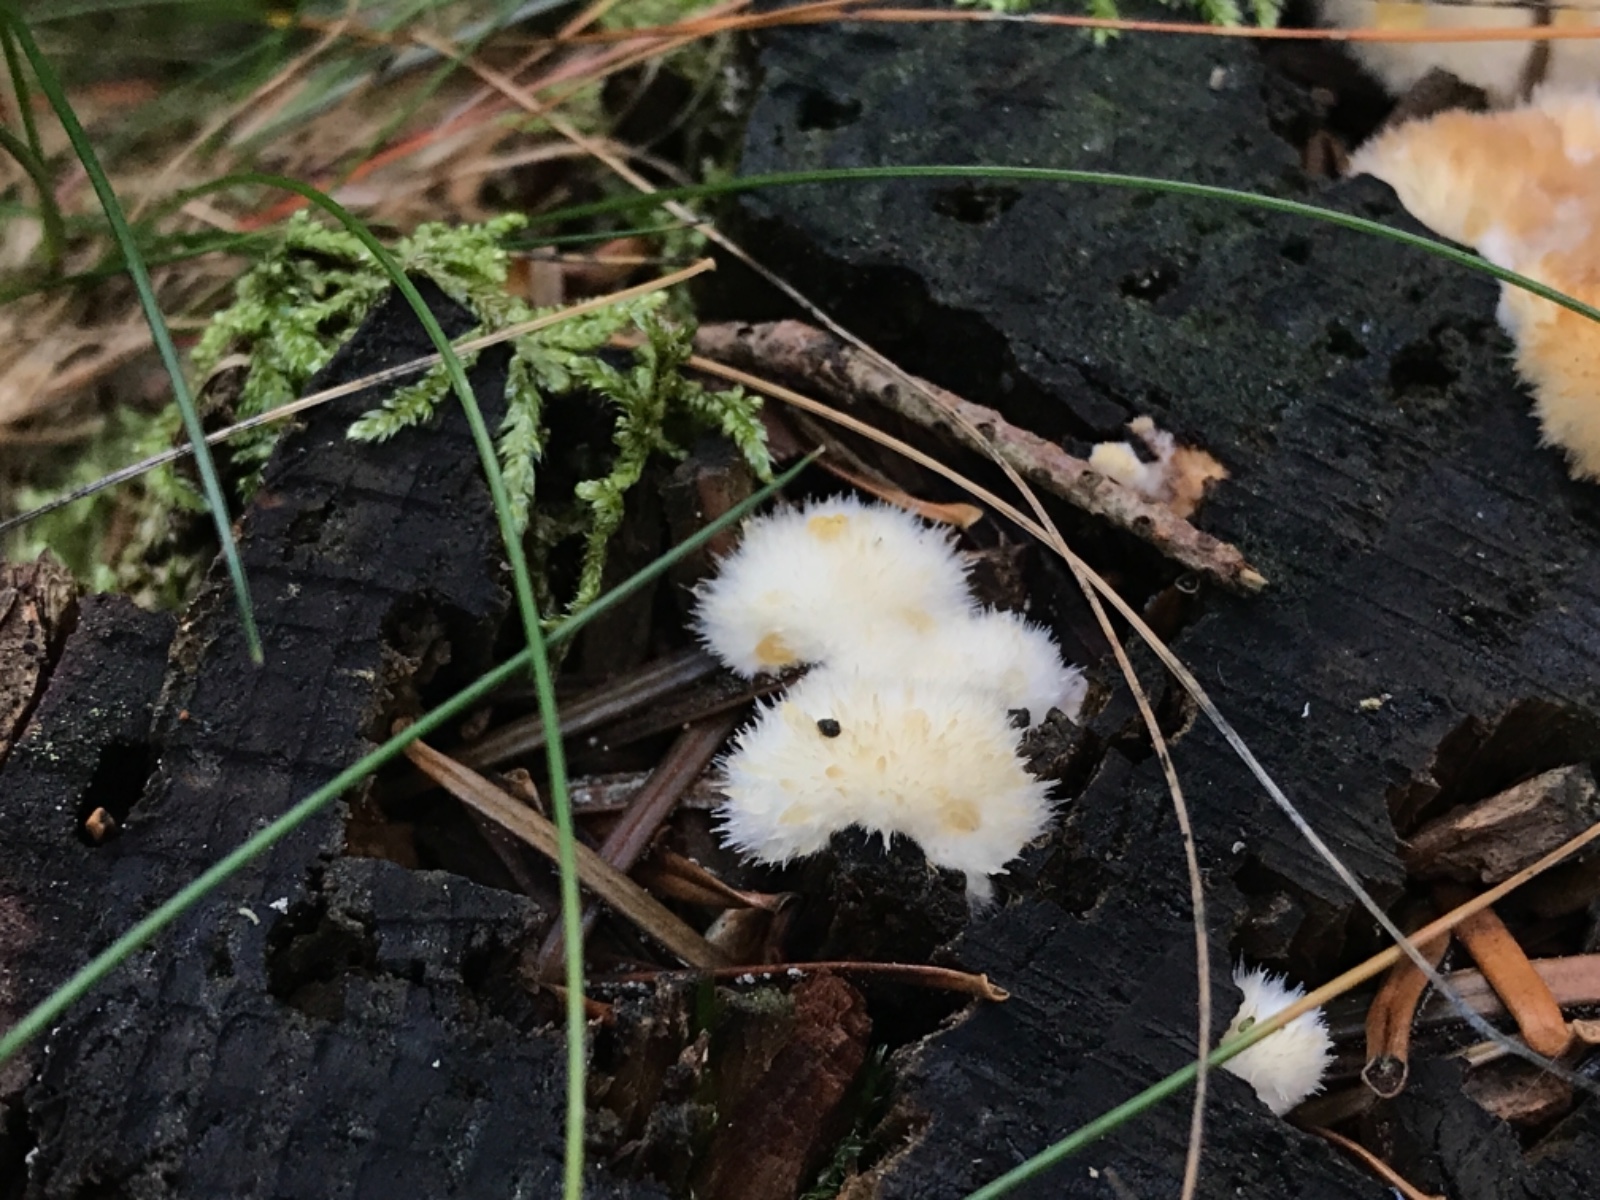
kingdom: Fungi
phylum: Basidiomycota
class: Agaricomycetes
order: Polyporales
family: Dacryobolaceae
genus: Postia
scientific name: Postia ptychogaster
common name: støvende kødporesvamp
